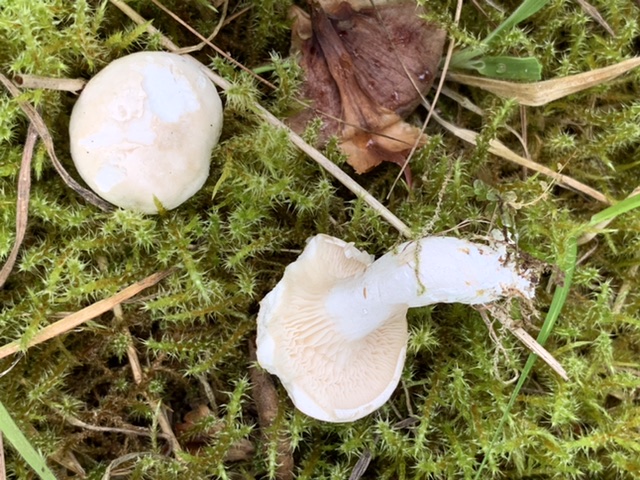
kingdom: Fungi
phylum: Basidiomycota
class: Agaricomycetes
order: Agaricales
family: Entolomataceae
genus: Clitopilus
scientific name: Clitopilus prunulus
